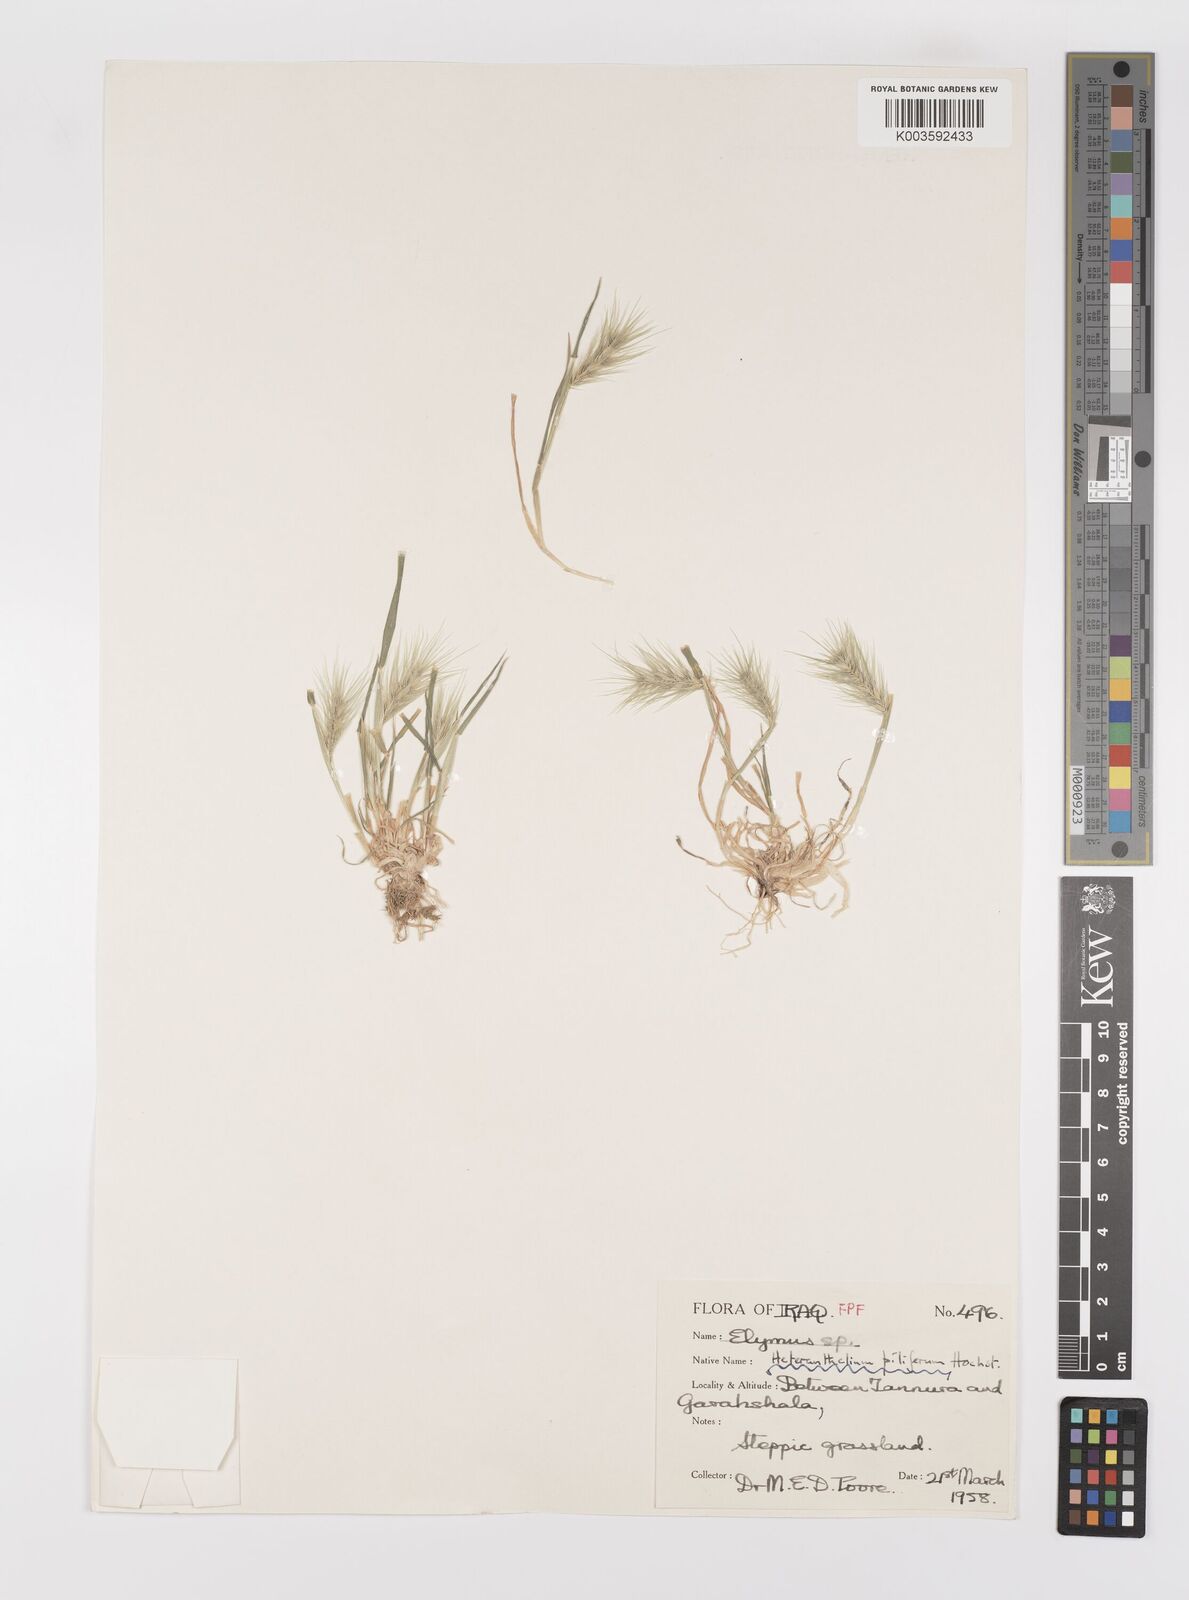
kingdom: Plantae
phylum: Tracheophyta
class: Liliopsida
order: Poales
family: Poaceae
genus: Heteranthelium
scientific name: Heteranthelium piliferum
